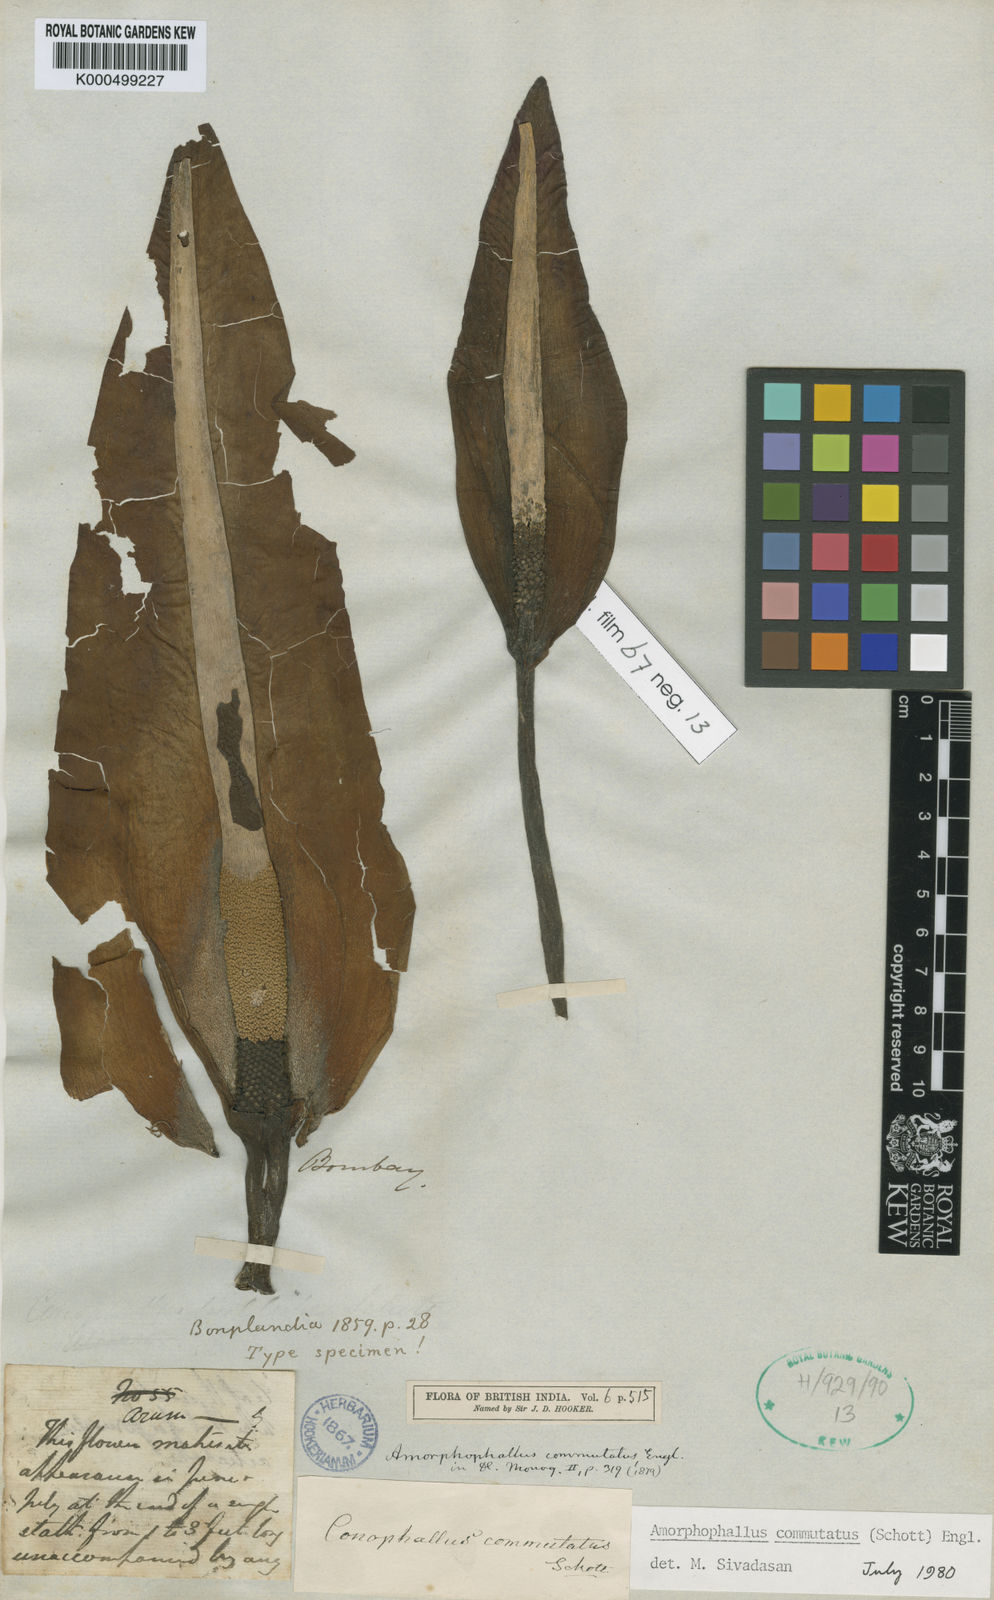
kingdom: Plantae
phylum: Tracheophyta
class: Liliopsida
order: Alismatales
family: Araceae
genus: Amorphophallus
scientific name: Amorphophallus commutatus
